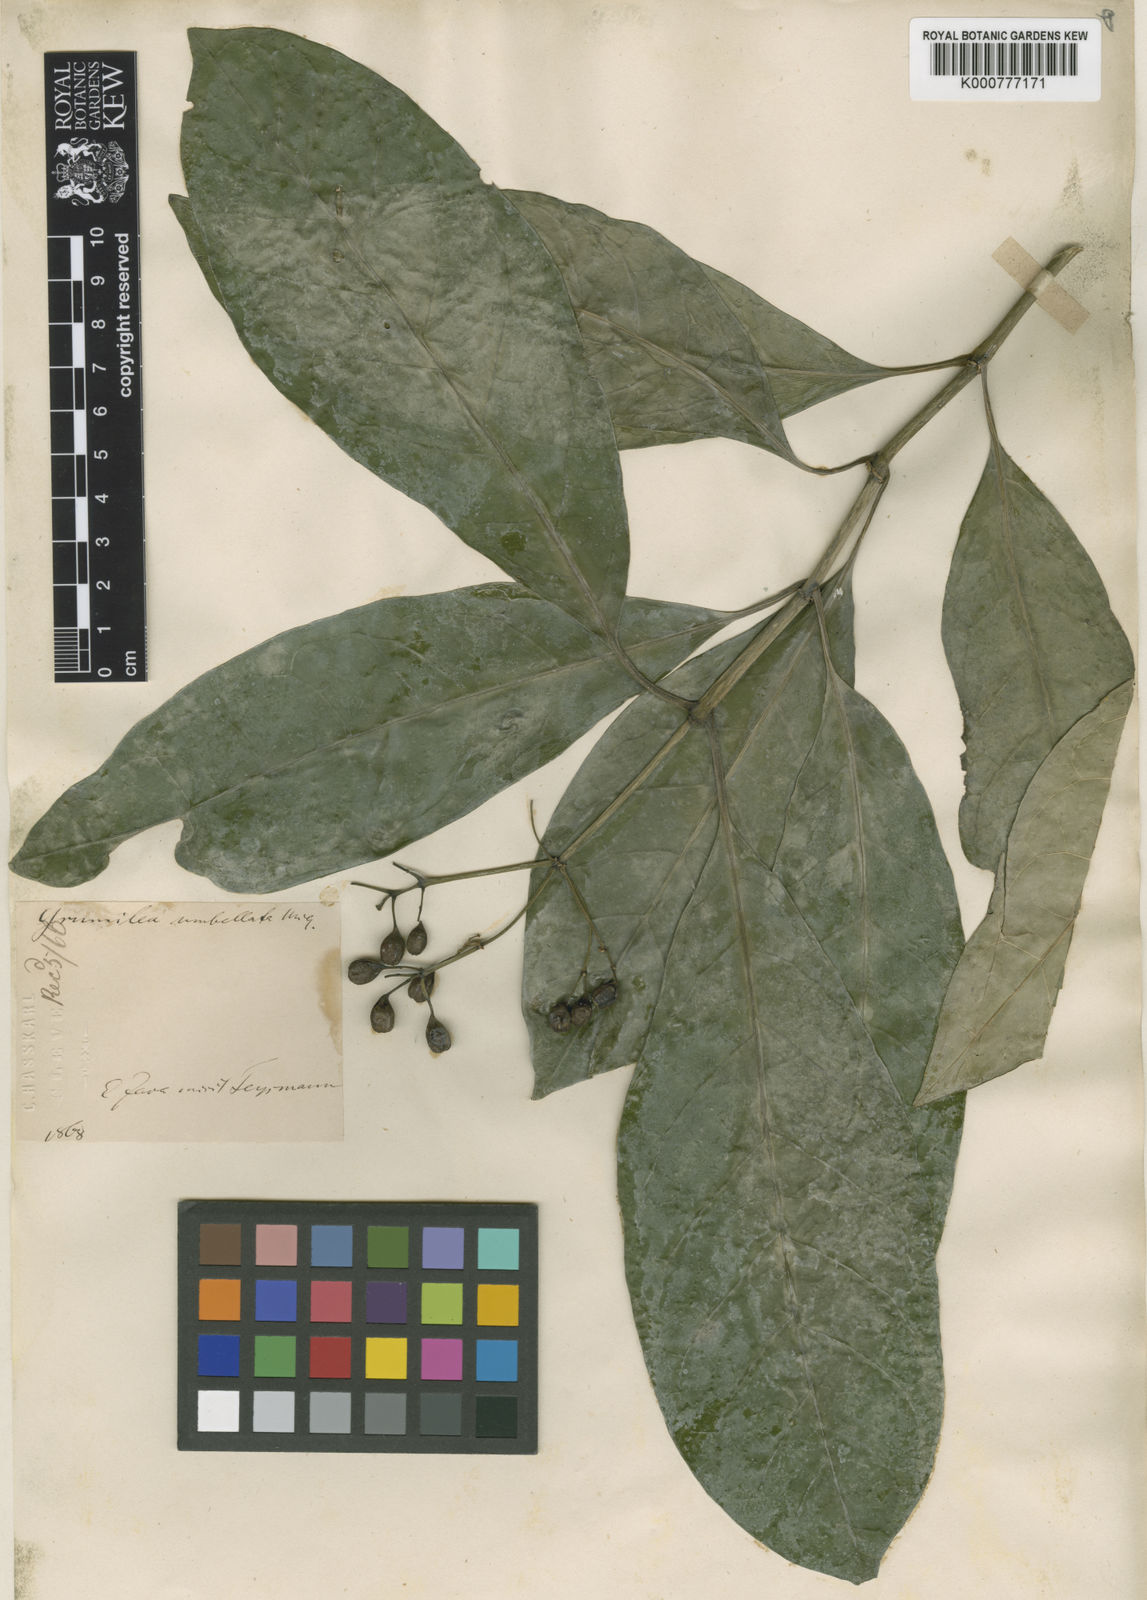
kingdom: Plantae
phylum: Tracheophyta
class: Magnoliopsida
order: Gentianales
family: Rubiaceae
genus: Eumachia
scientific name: Eumachia montana
